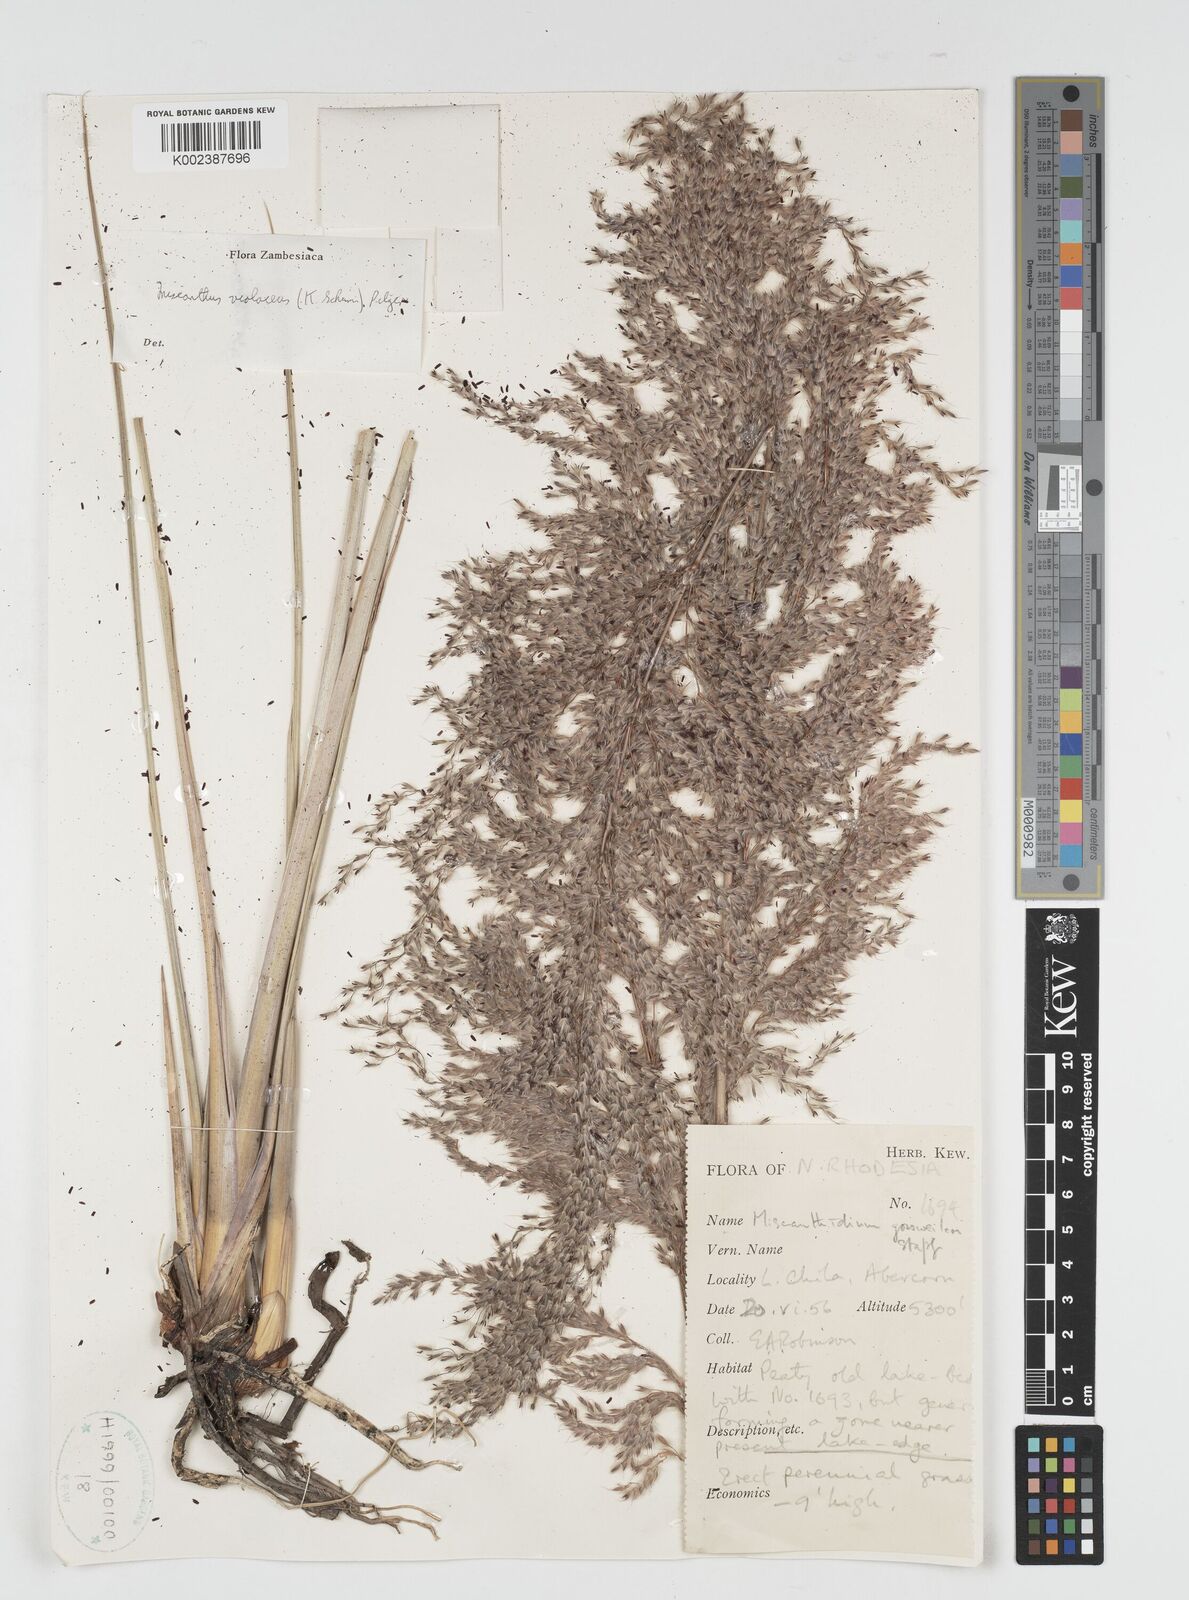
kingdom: Plantae
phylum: Tracheophyta
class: Liliopsida
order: Poales
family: Poaceae
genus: Miscanthidium
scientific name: Miscanthidium violaceum
